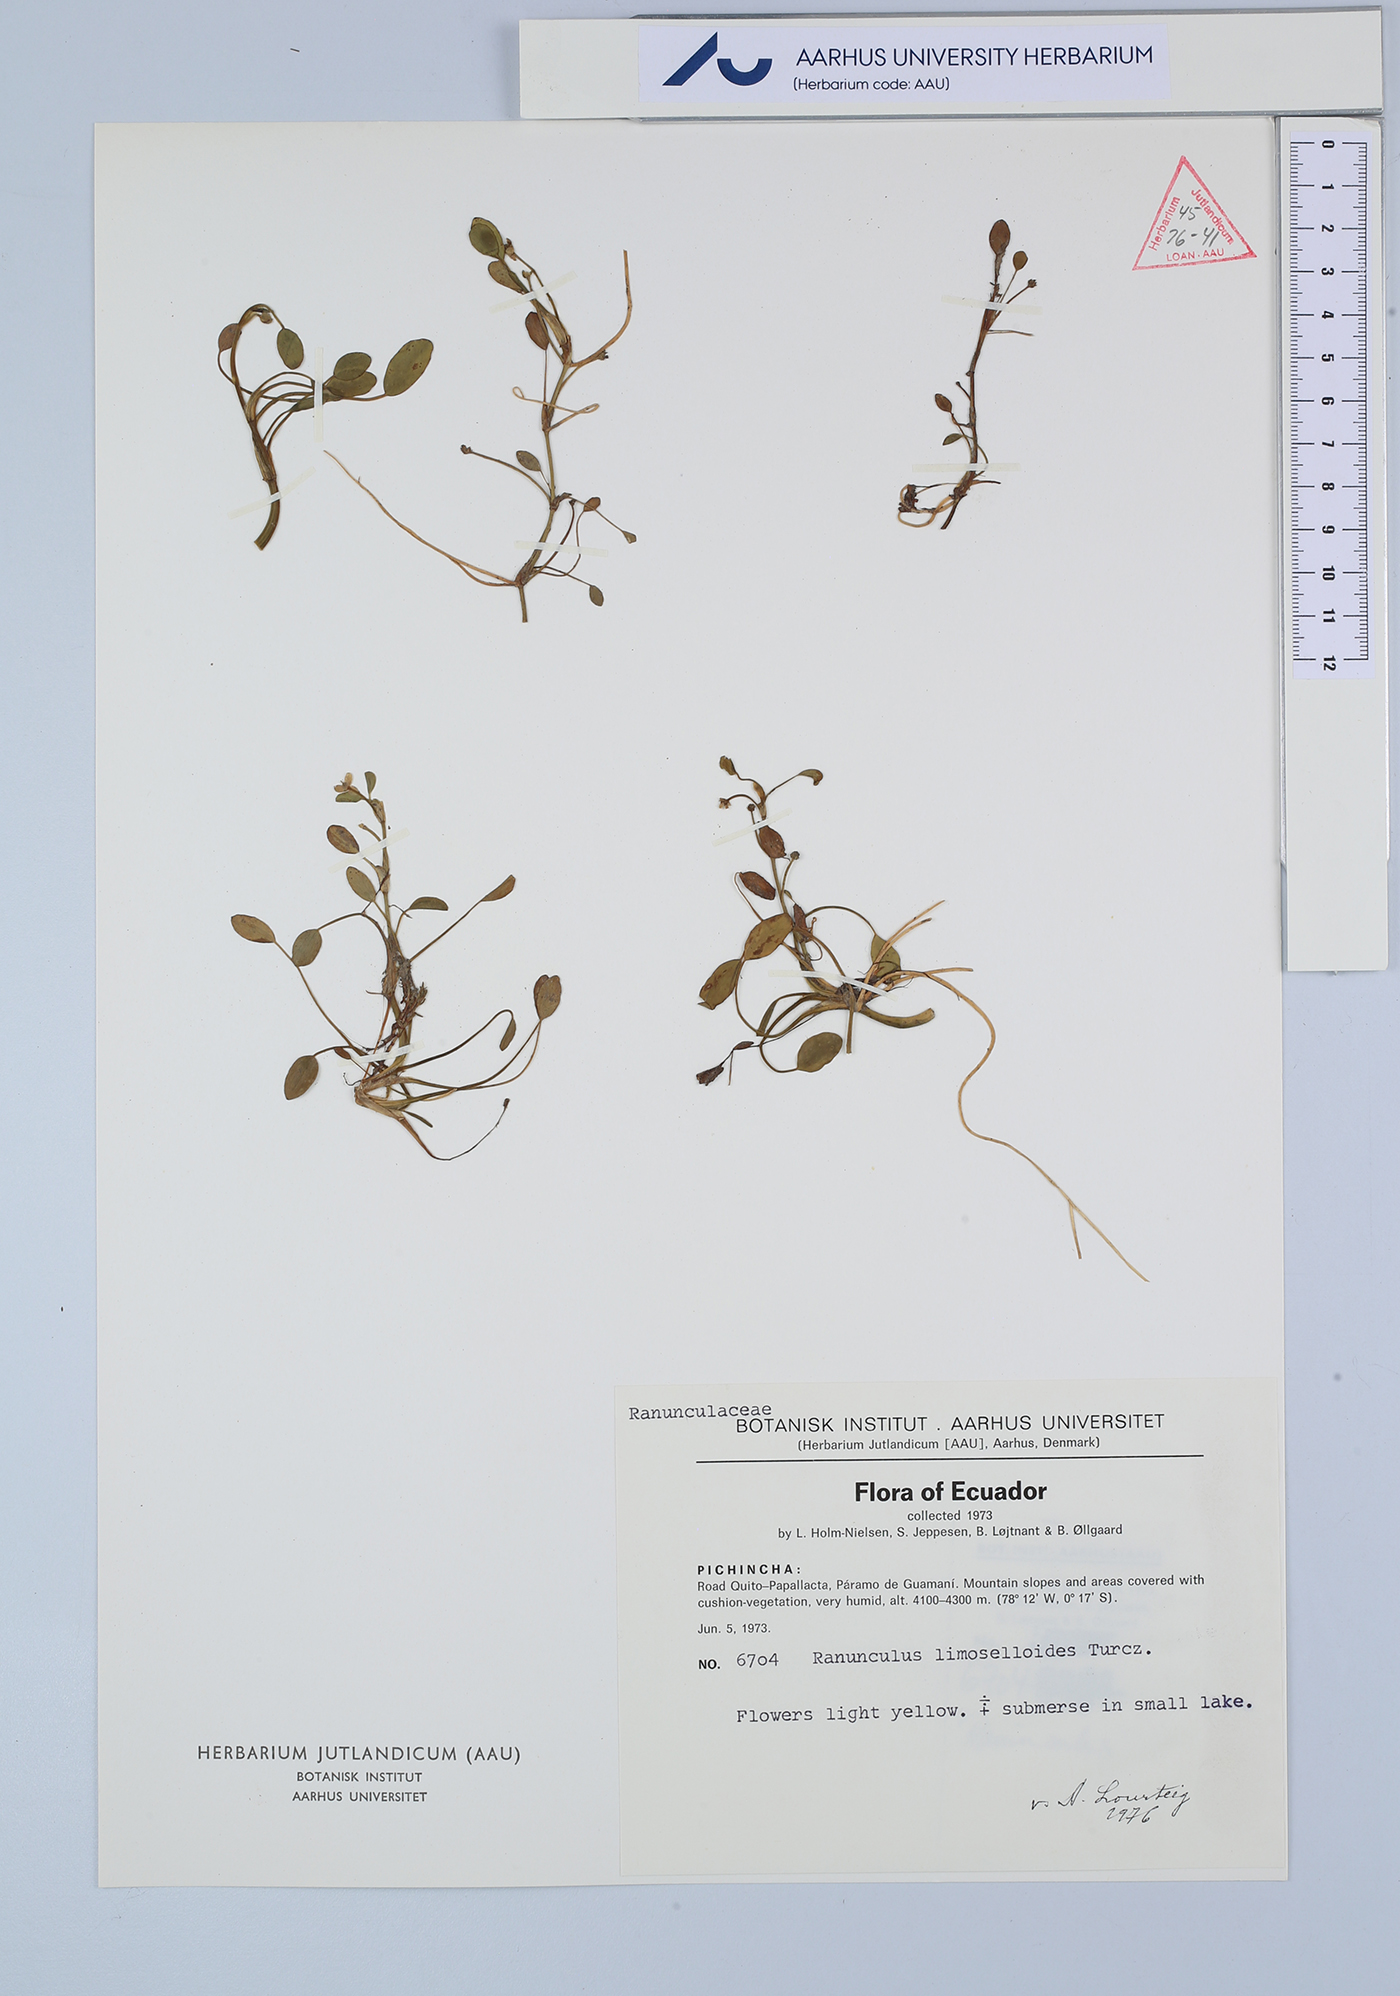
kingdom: Plantae
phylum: Tracheophyta
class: Magnoliopsida
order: Ranunculales
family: Ranunculaceae
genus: Ranunculus
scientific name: Ranunculus limoselloides
